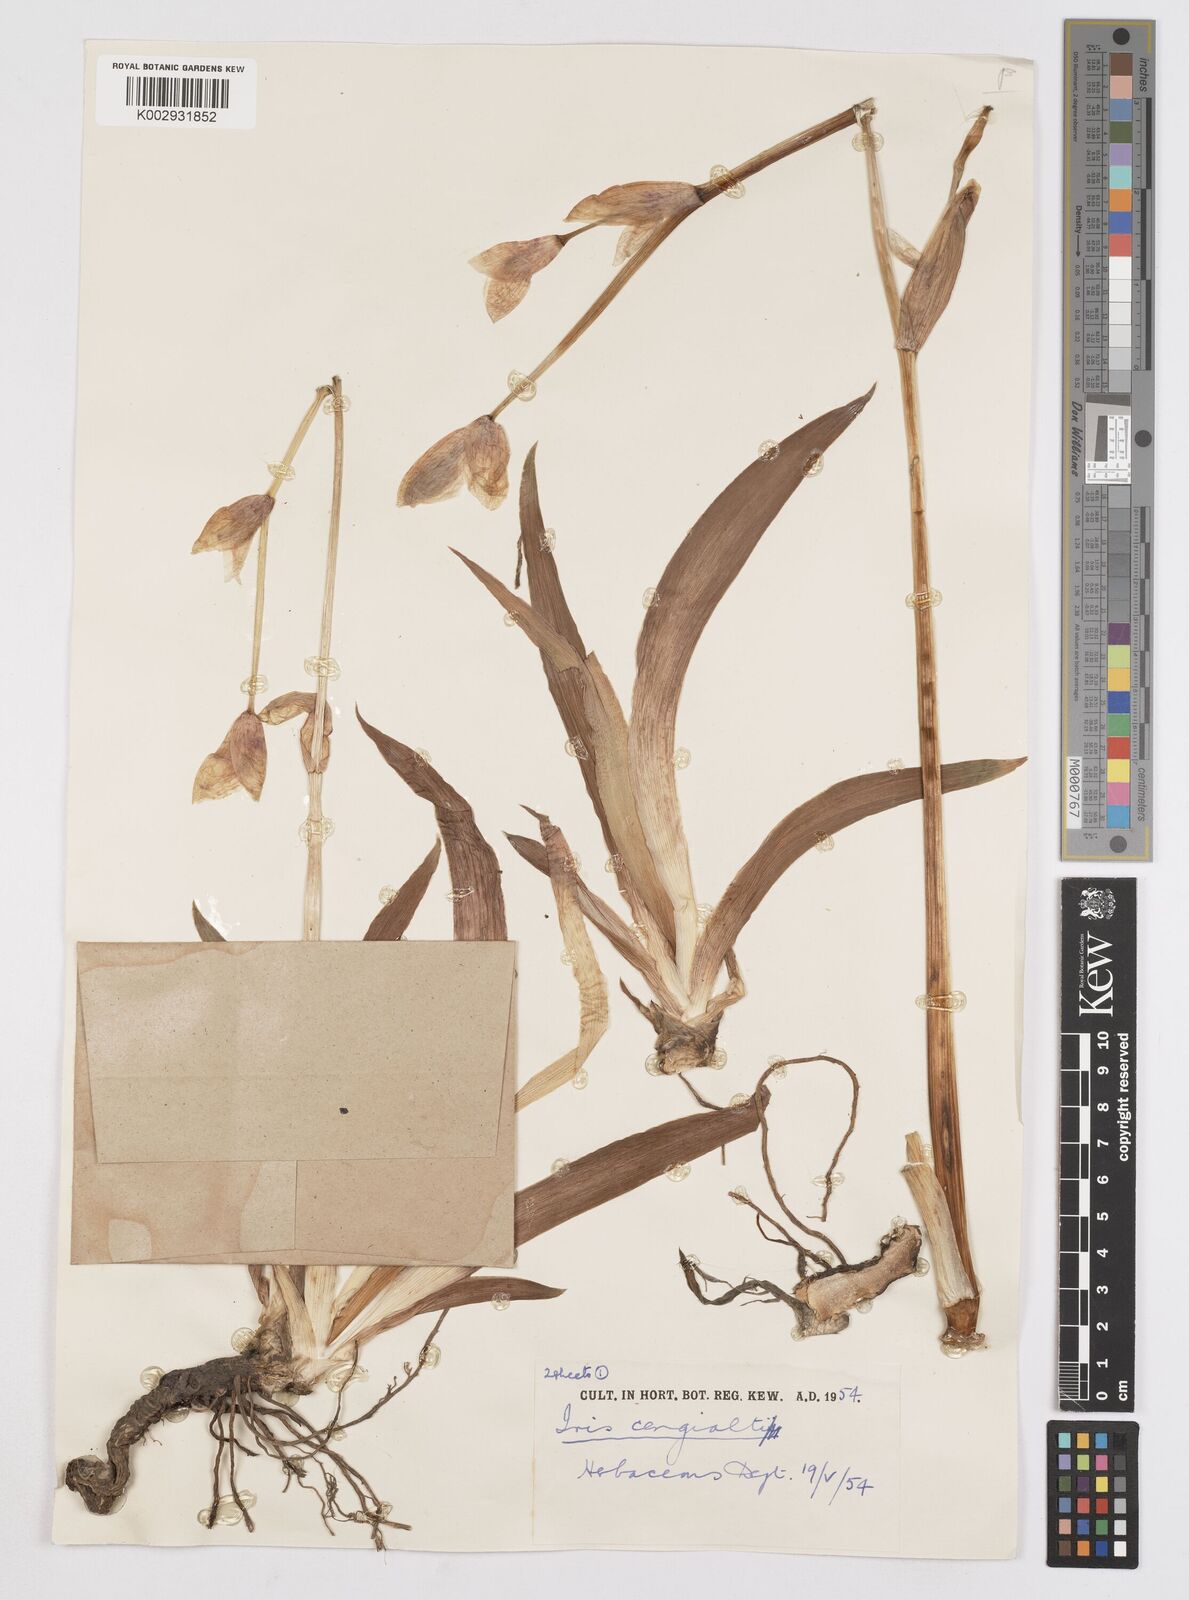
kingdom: Plantae
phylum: Tracheophyta
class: Liliopsida
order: Asparagales
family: Iridaceae
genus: Iris
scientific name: Iris pallida
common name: Sweet iris
